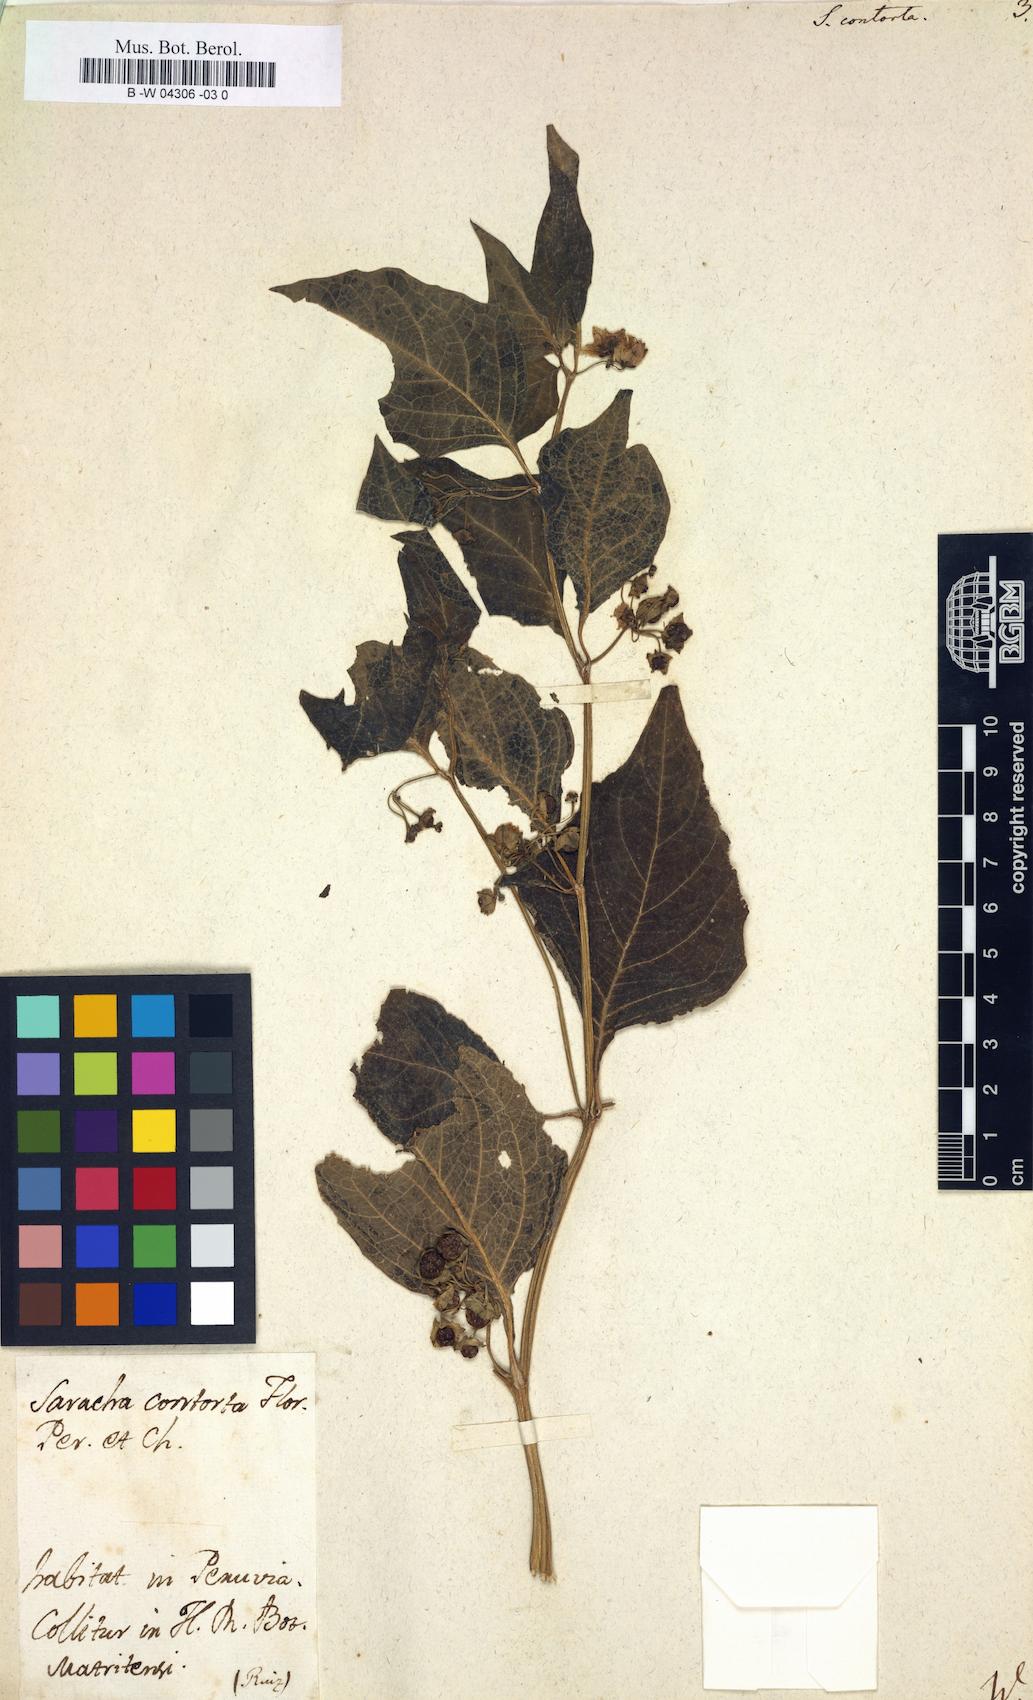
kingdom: Plantae
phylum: Tracheophyta
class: Magnoliopsida
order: Solanales
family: Solanaceae
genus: Jaltomata
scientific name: Jaltomata umbellata
